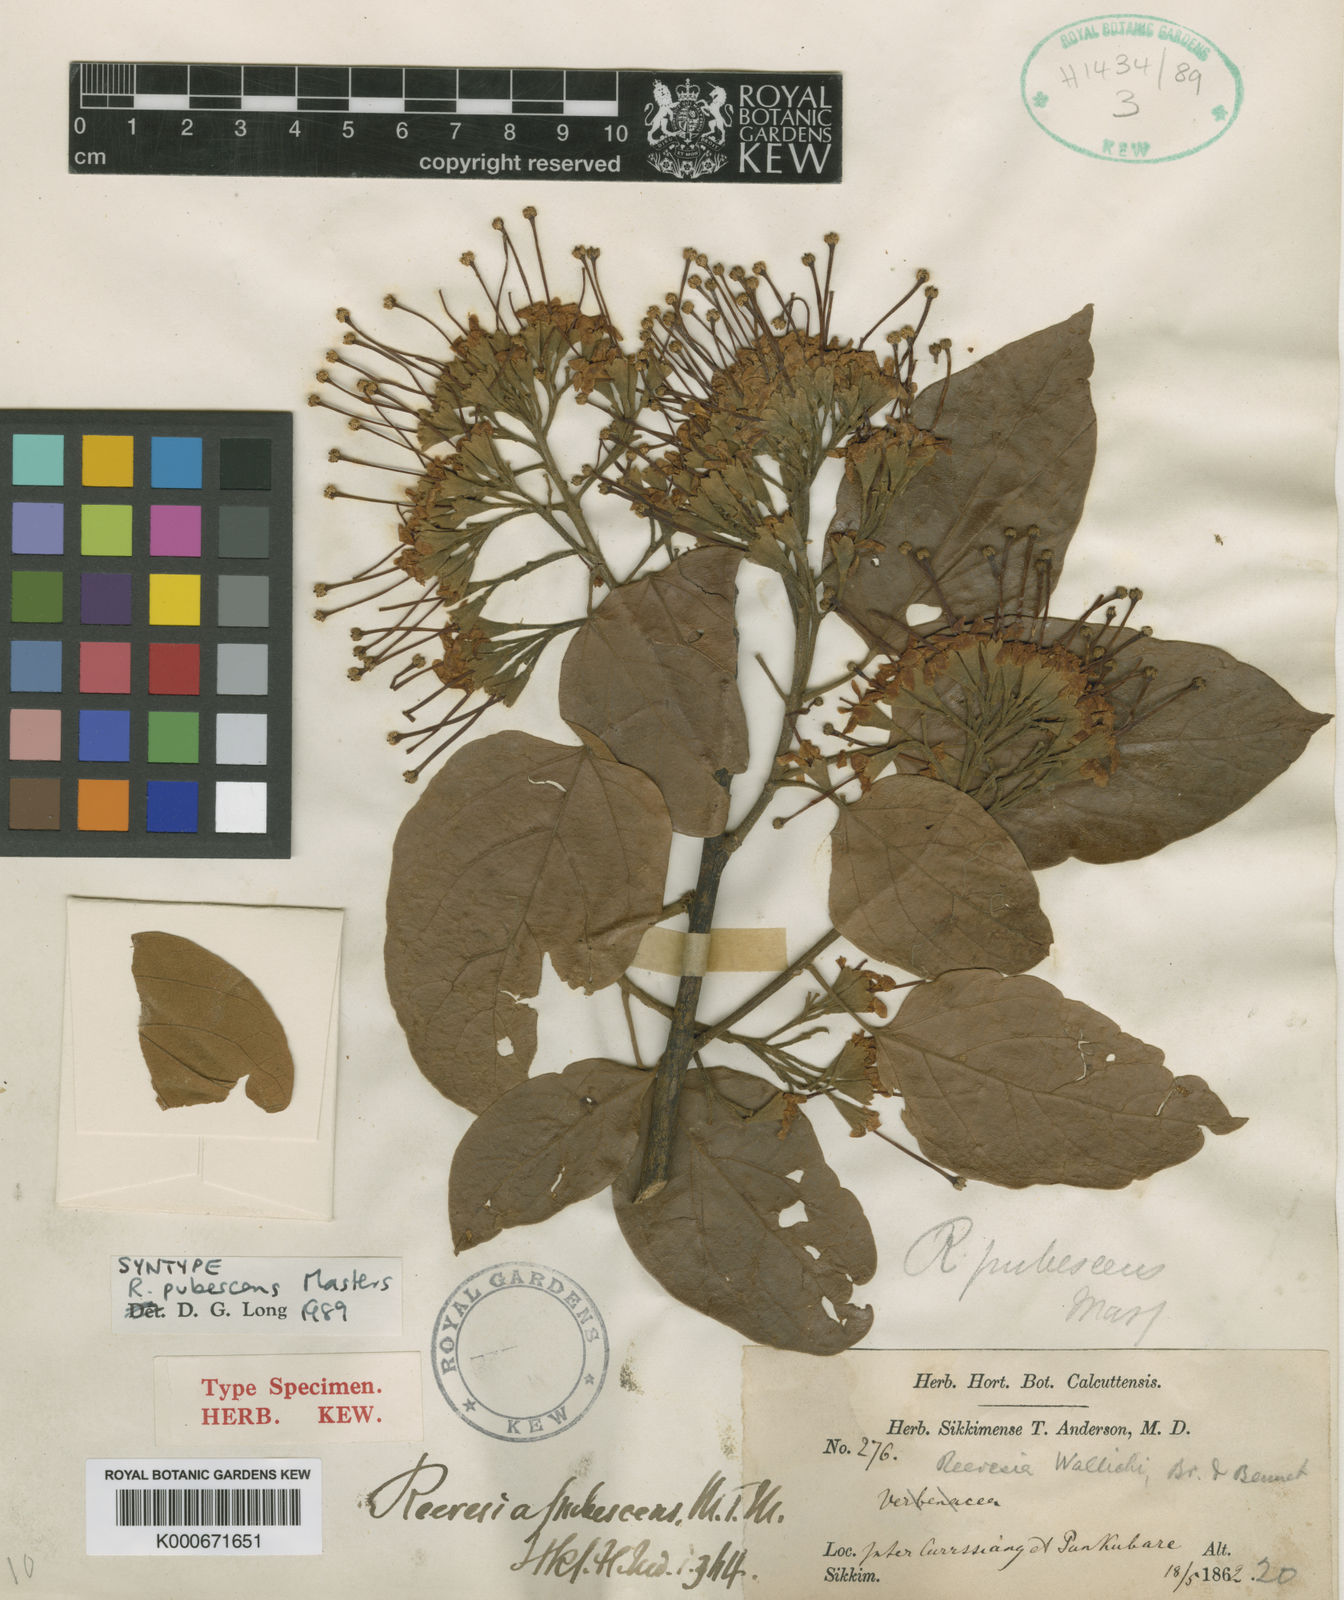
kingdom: Plantae
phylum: Tracheophyta
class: Magnoliopsida
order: Malvales
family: Malvaceae
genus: Reevesia
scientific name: Reevesia pubescens
